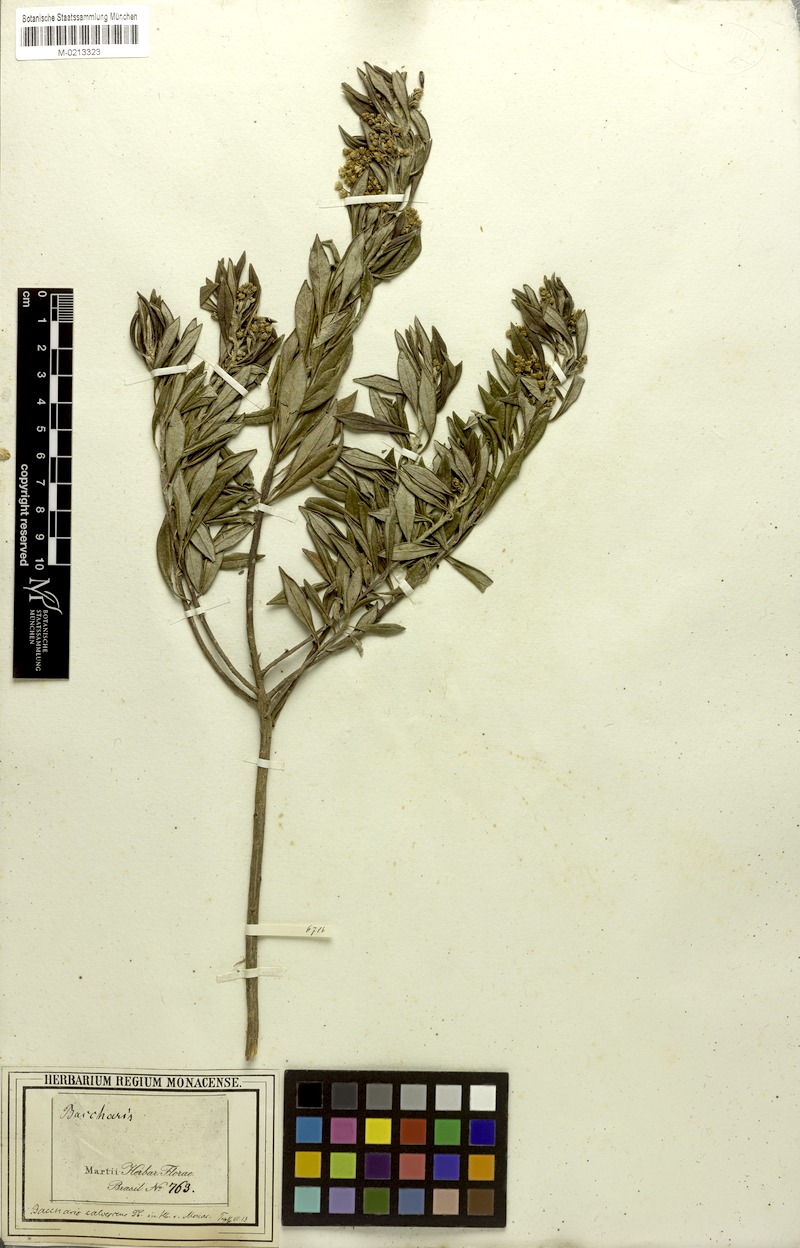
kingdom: Plantae
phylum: Tracheophyta
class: Magnoliopsida
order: Asterales
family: Asteraceae
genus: Baccharis
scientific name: Baccharis calvescens
